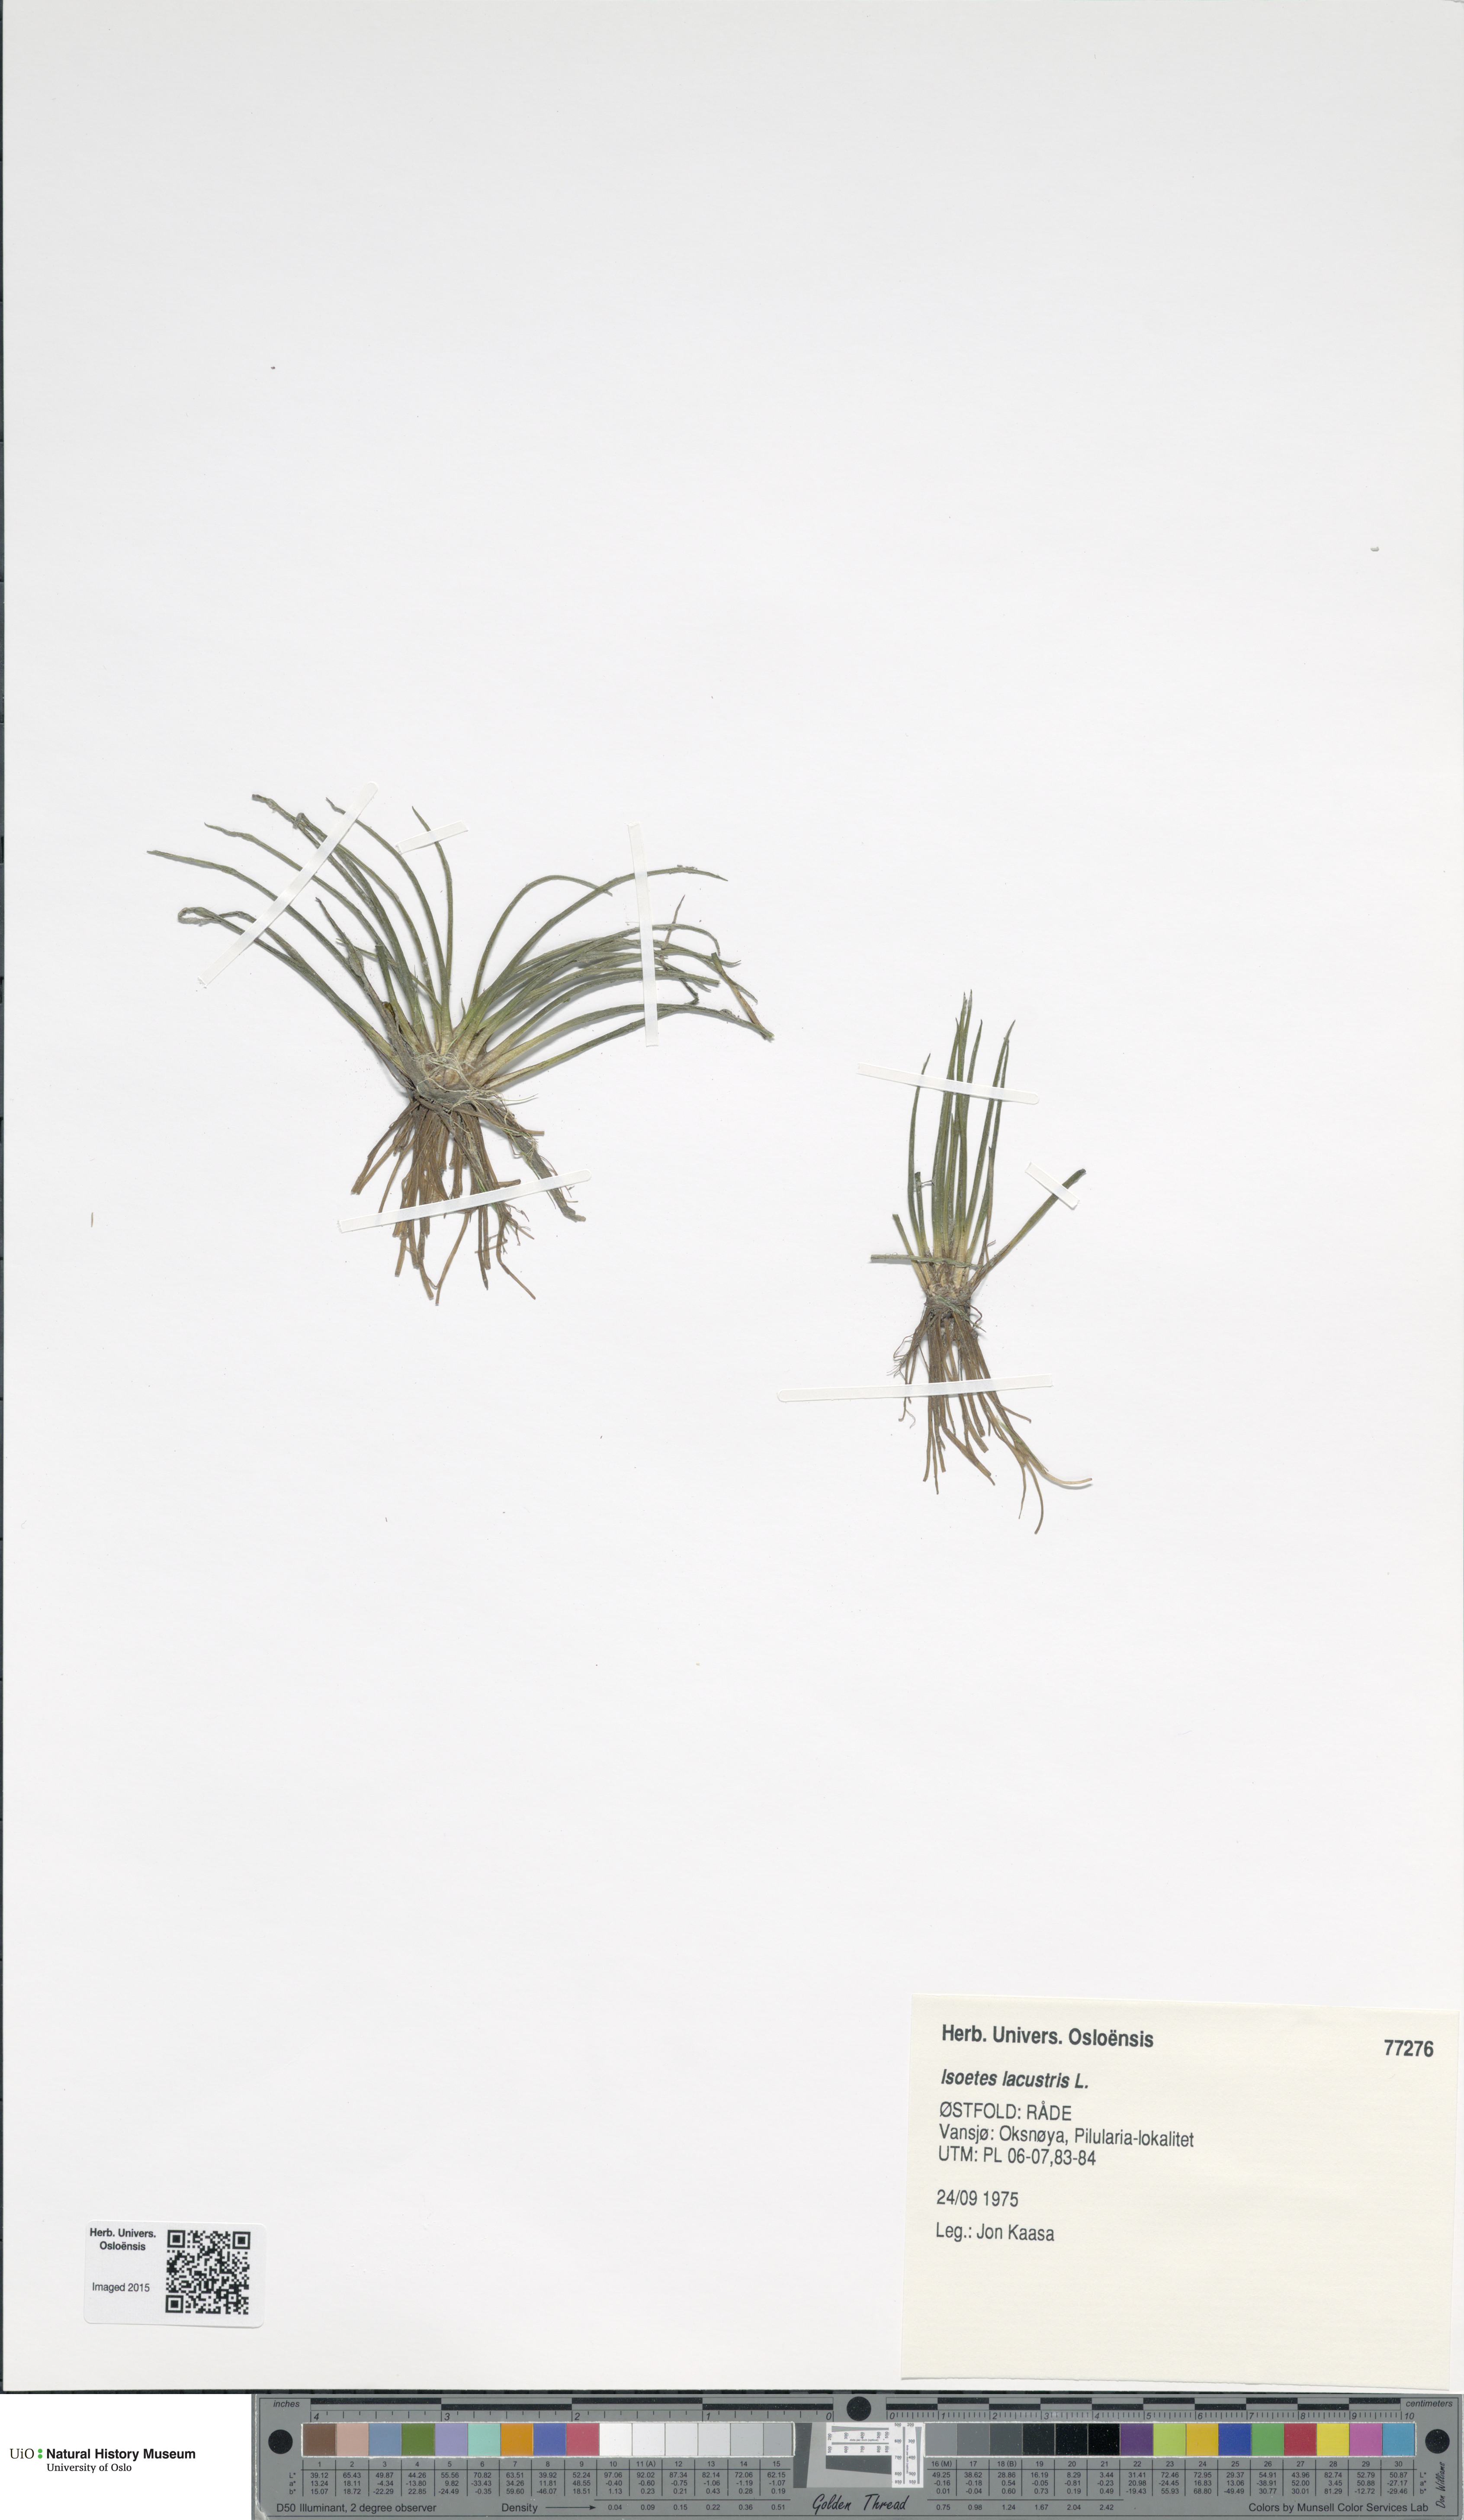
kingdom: Plantae
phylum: Tracheophyta
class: Lycopodiopsida
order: Isoetales
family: Isoetaceae
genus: Isoetes
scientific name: Isoetes lacustris
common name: Common quillwort
